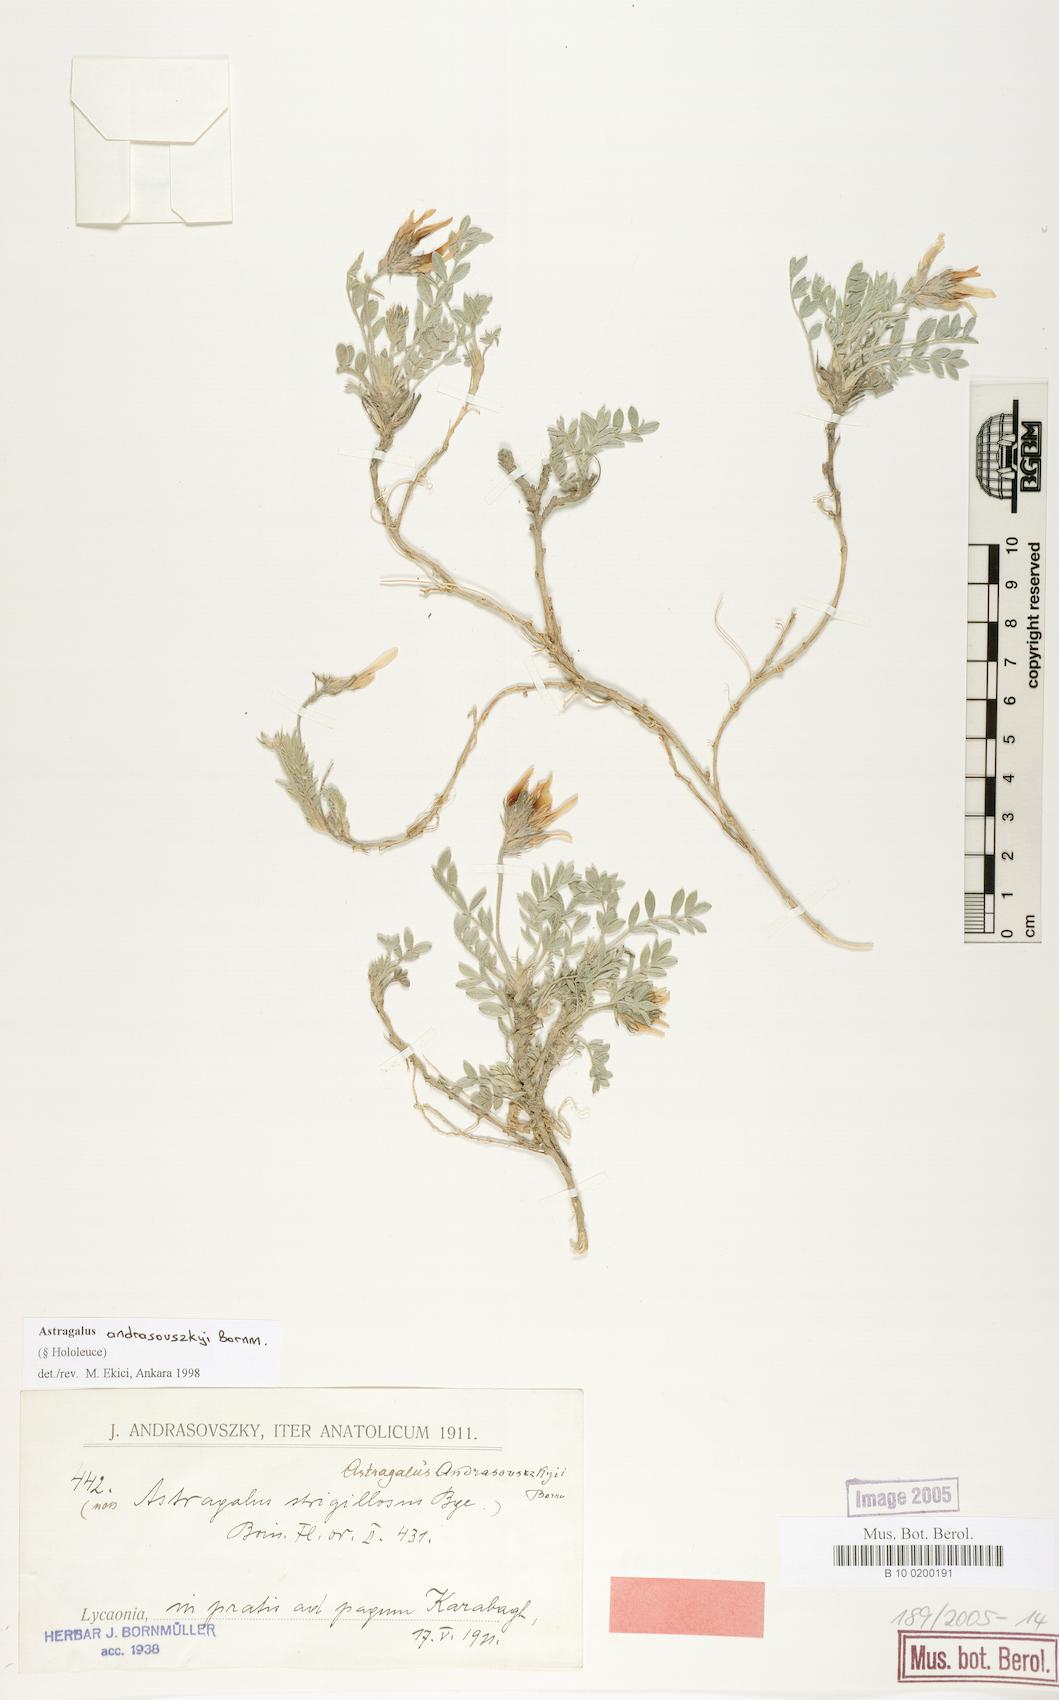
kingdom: Plantae
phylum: Tracheophyta
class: Magnoliopsida
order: Fabales
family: Fabaceae
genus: Astragalus
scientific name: Astragalus andrasovszkyi
